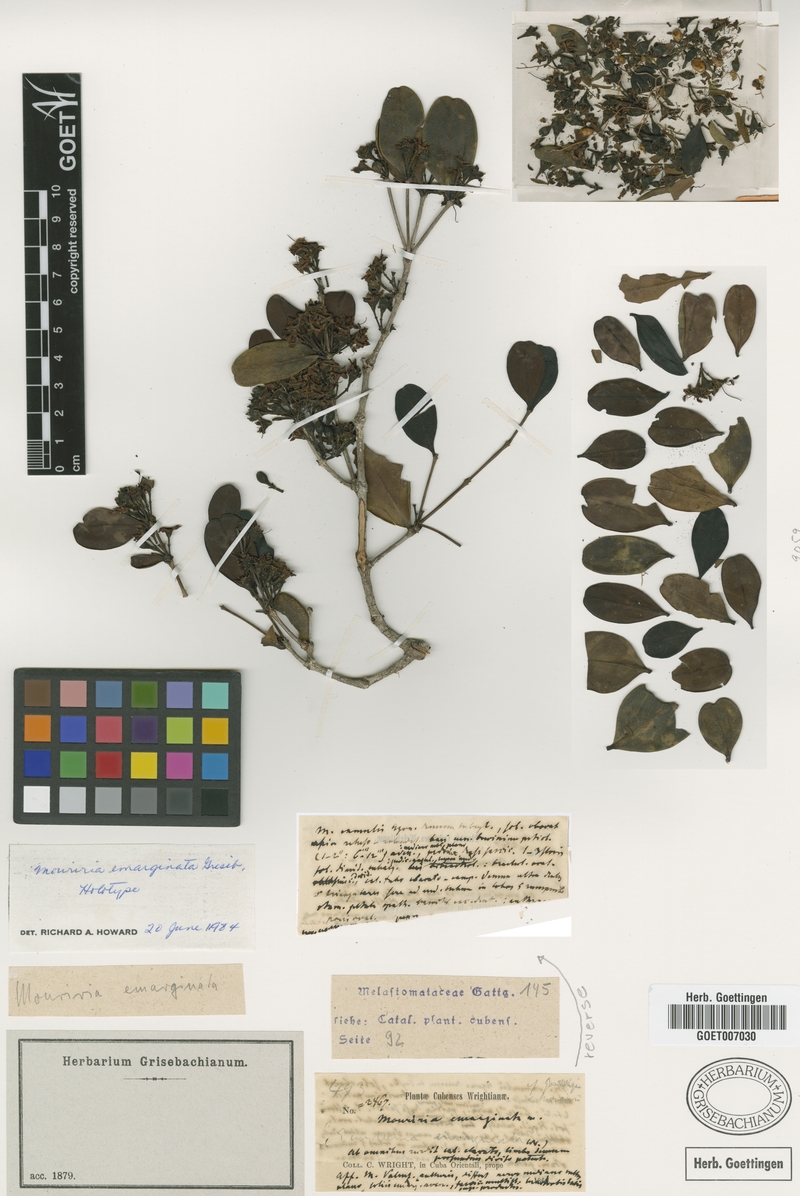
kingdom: Plantae
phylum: Tracheophyta
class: Magnoliopsida
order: Myrtales
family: Melastomataceae
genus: Mouriri
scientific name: Mouriri emarginata
